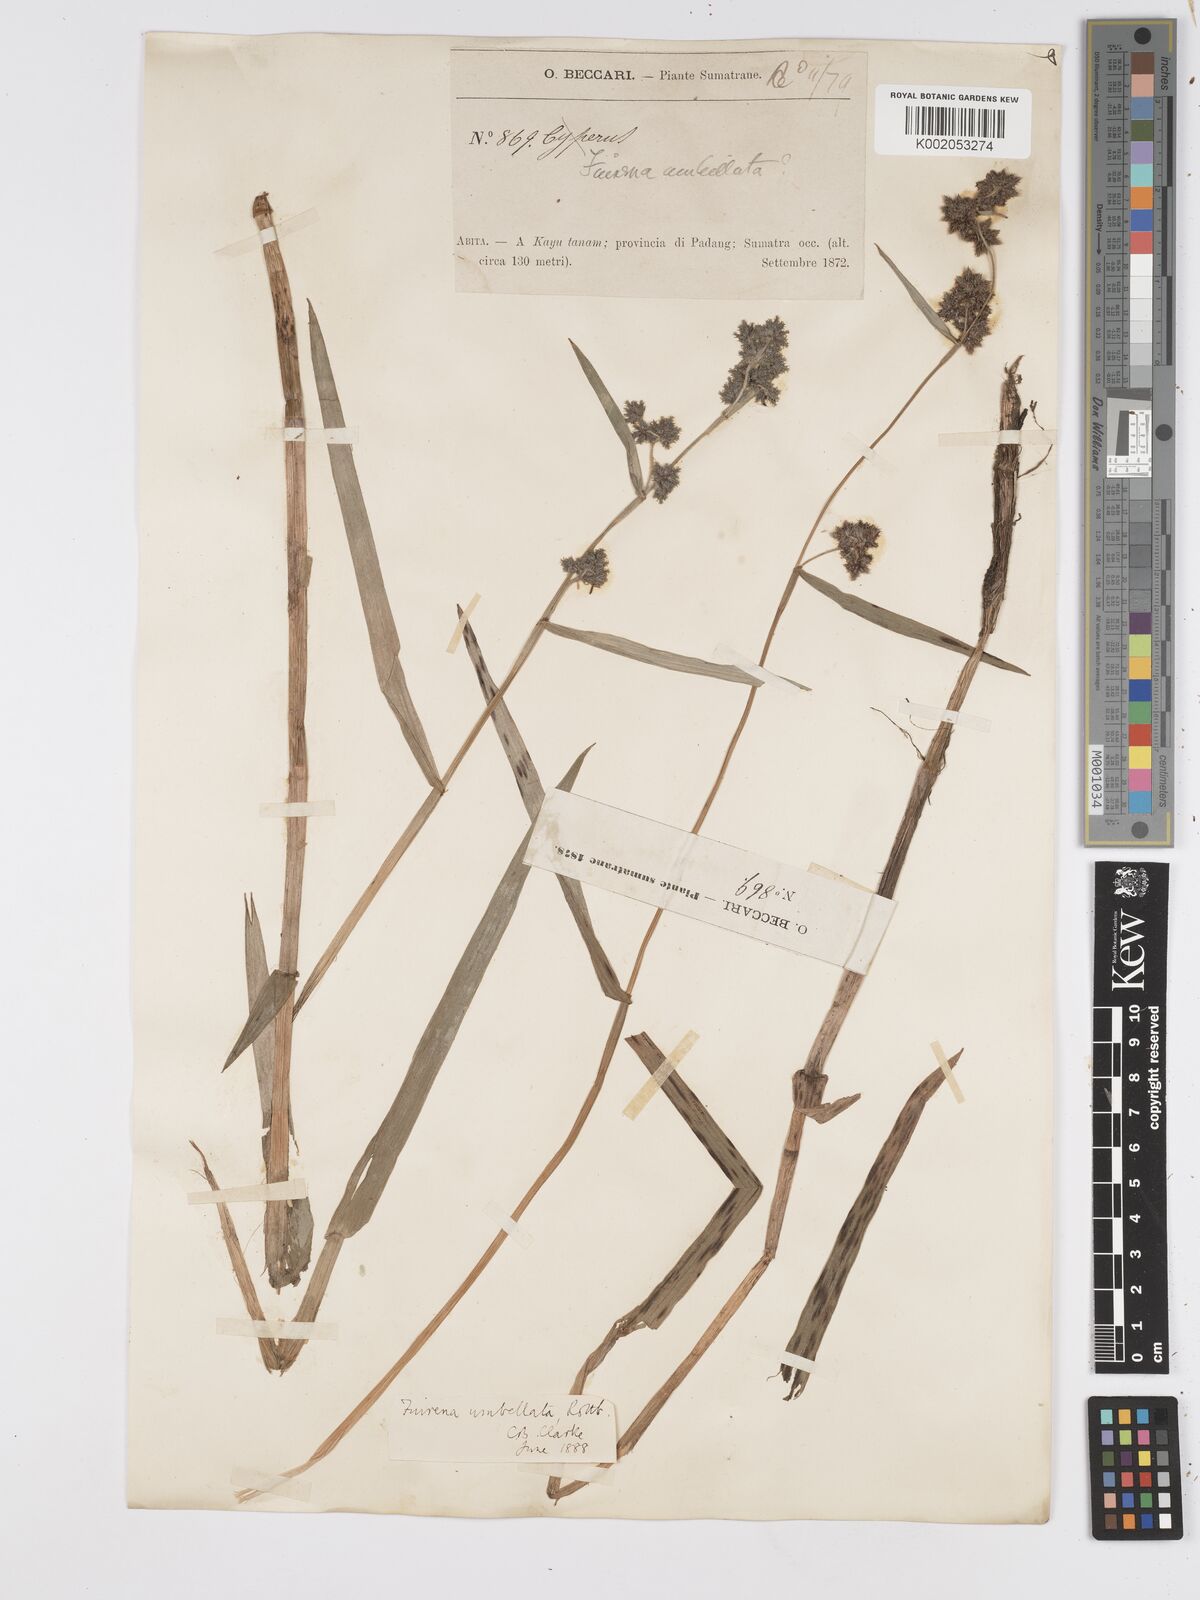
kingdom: Plantae
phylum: Tracheophyta
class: Liliopsida
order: Poales
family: Cyperaceae
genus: Fuirena
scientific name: Fuirena umbellata
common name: Yefen
